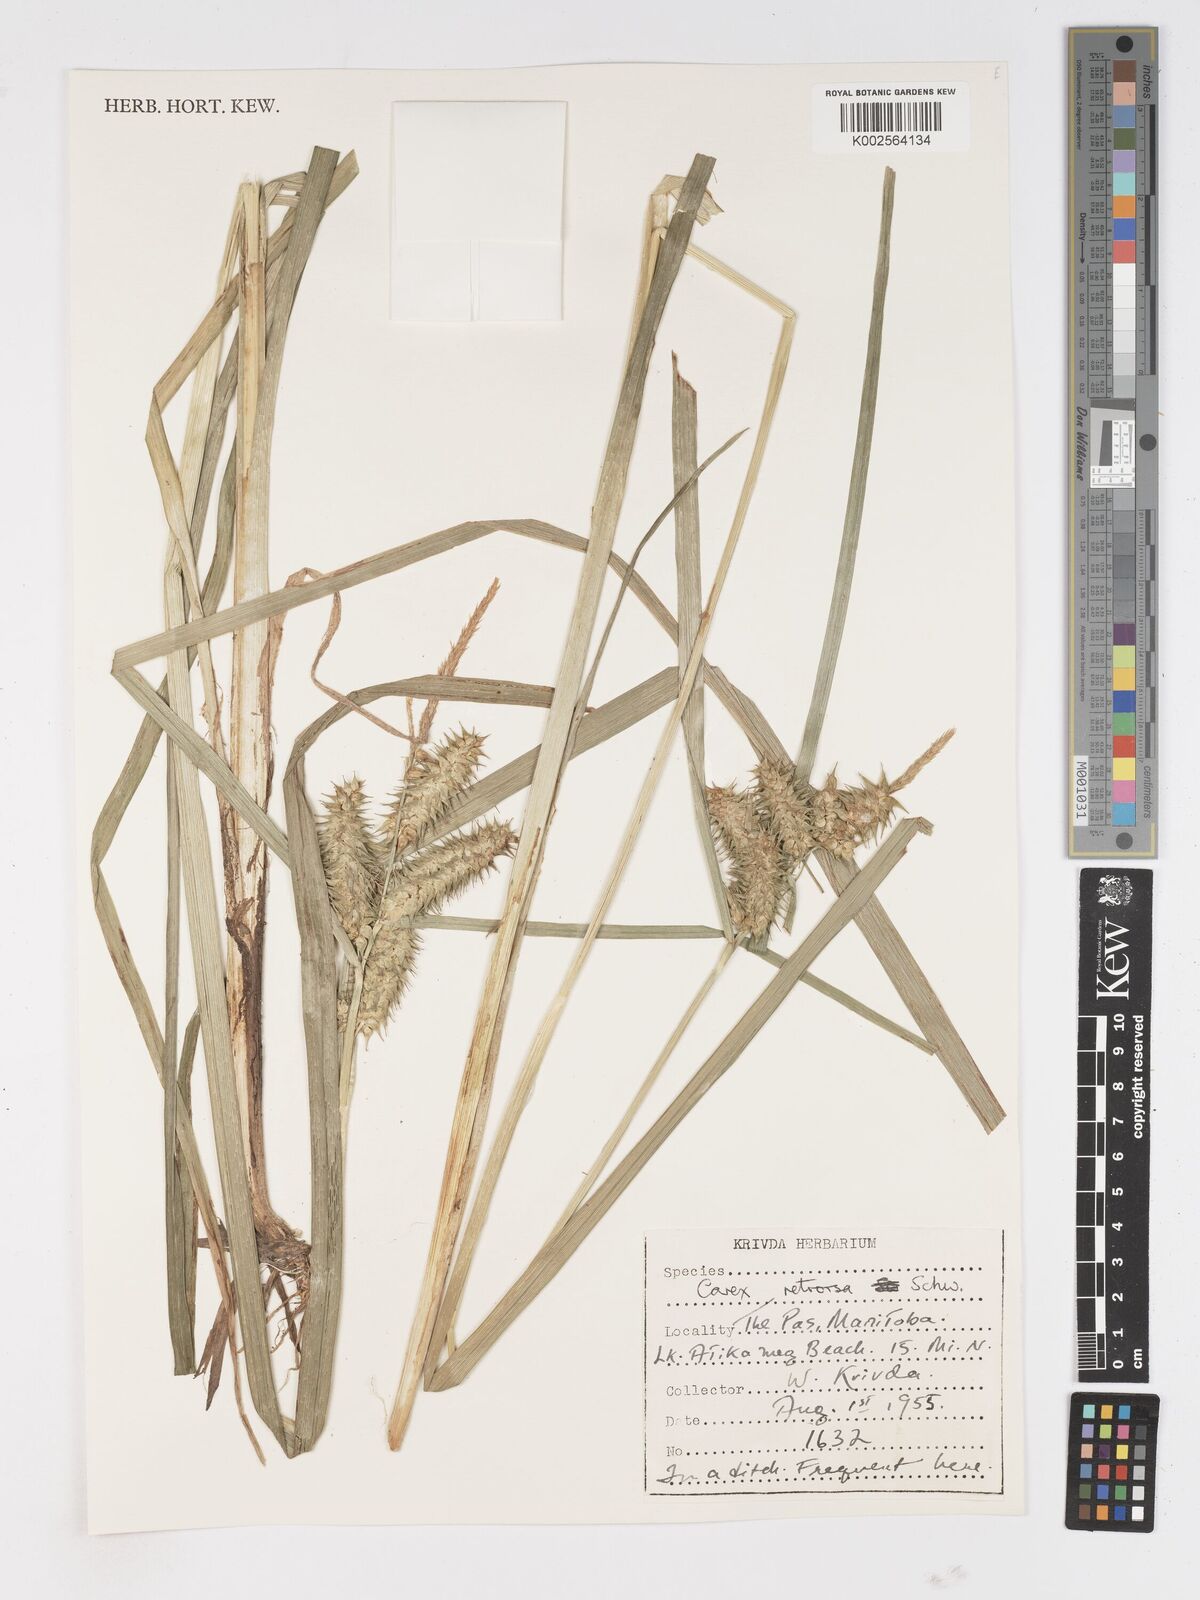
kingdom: Plantae
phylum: Tracheophyta
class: Liliopsida
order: Poales
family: Cyperaceae
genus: Carex
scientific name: Carex retrorsa
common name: Knot-sheath sedge
